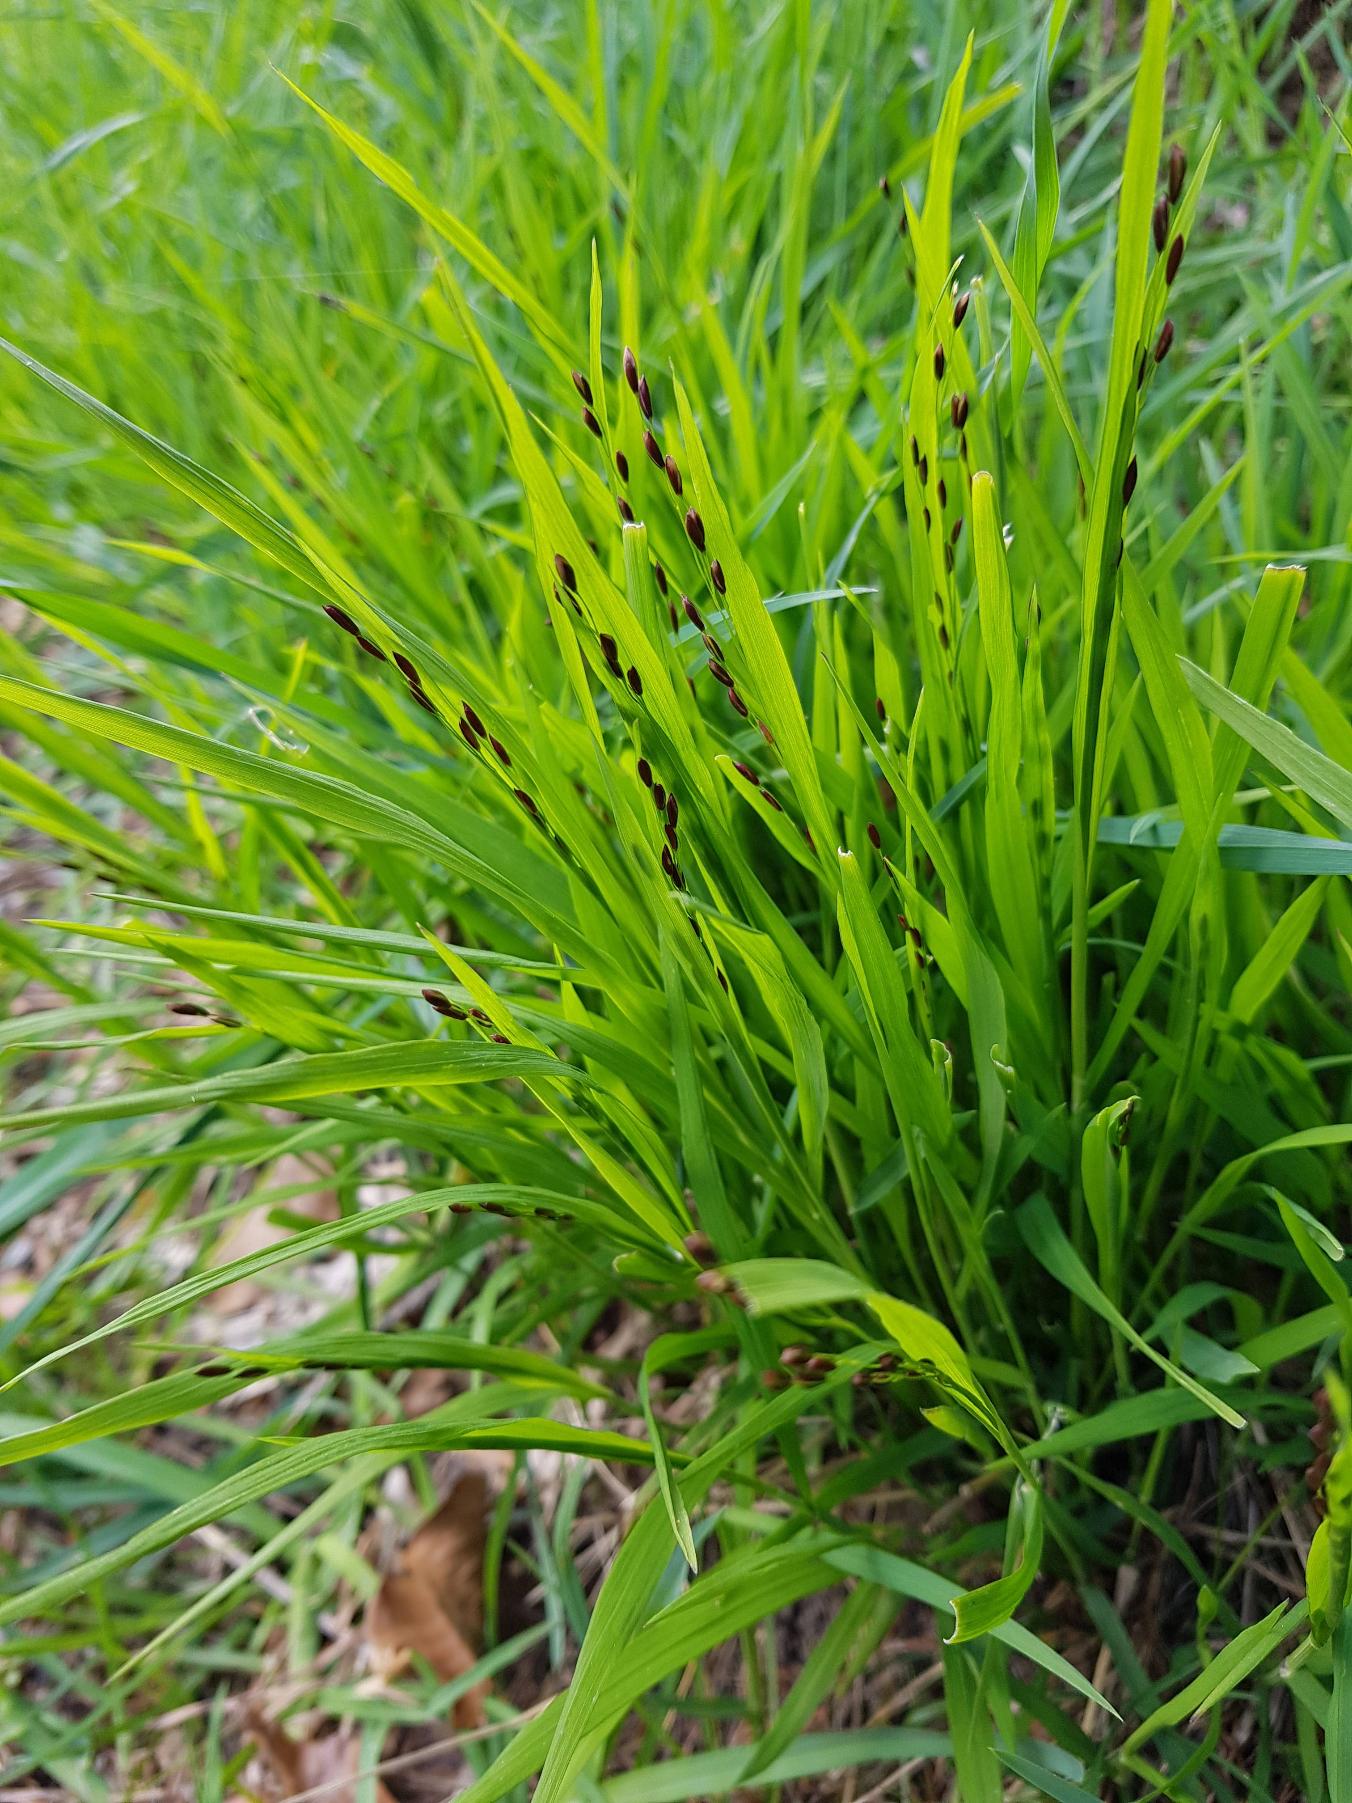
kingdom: Plantae
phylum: Tracheophyta
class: Liliopsida
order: Poales
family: Poaceae
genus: Melica
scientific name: Melica uniflora
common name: Enblomstret flitteraks
